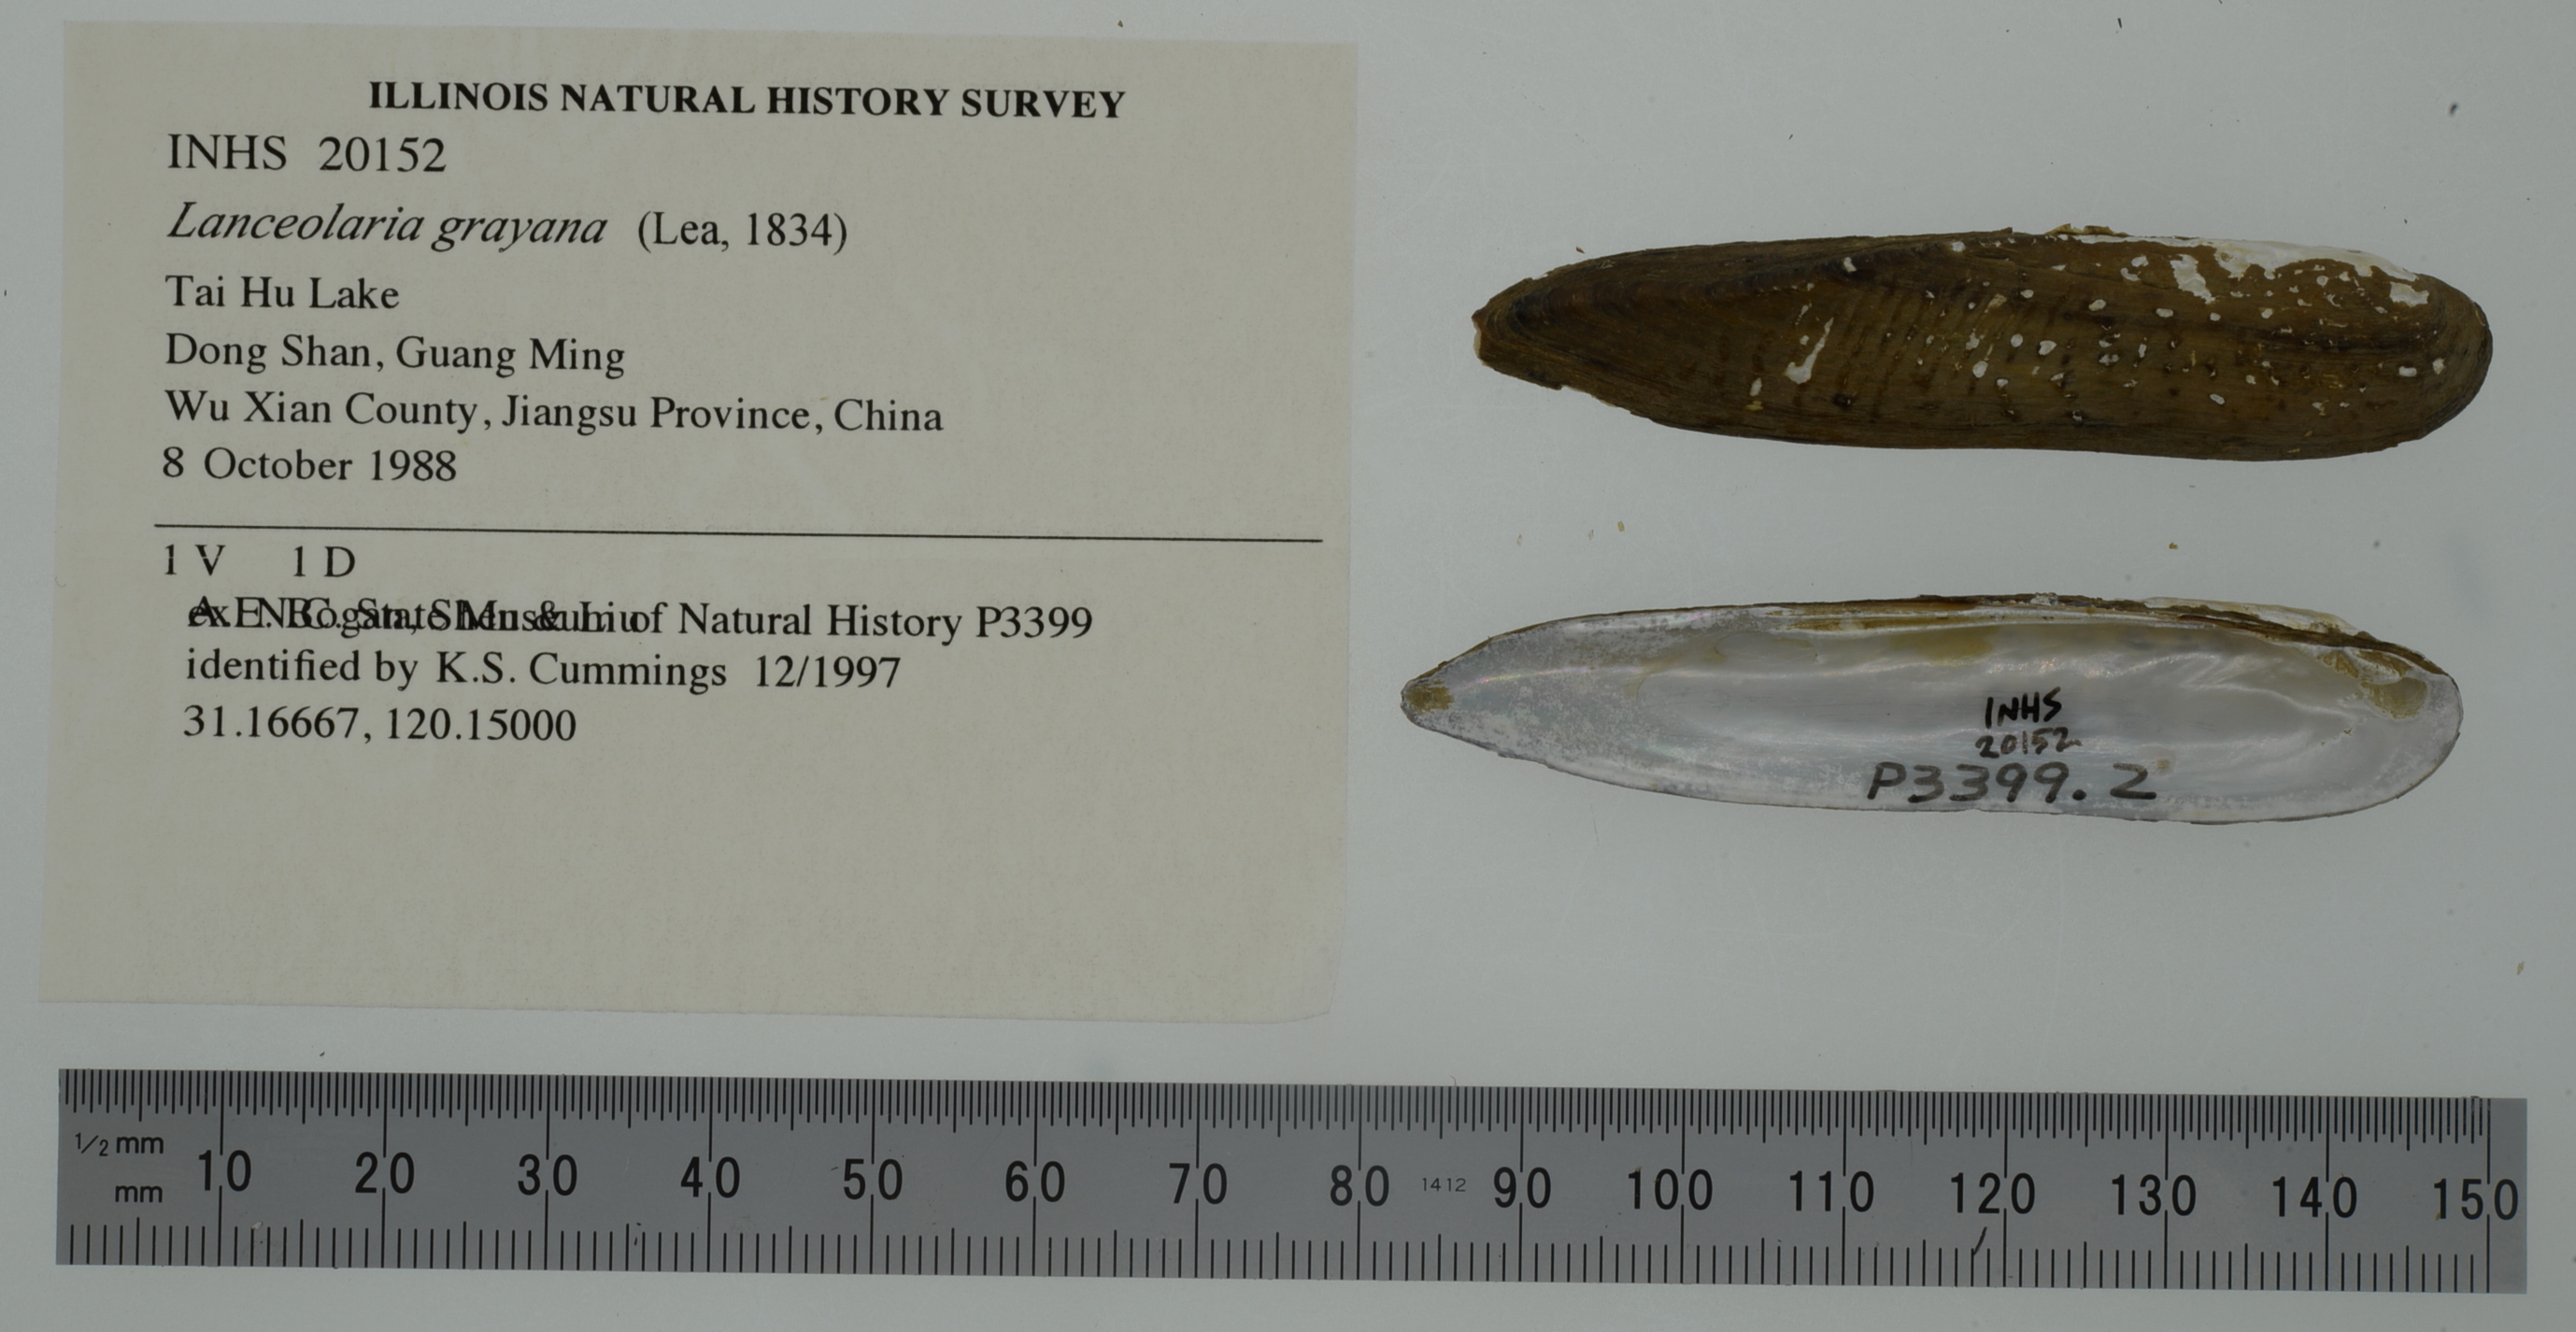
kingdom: Animalia
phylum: Mollusca
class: Bivalvia
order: Unionida
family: Unionidae
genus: Lanceolaria
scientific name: Lanceolaria grayii
